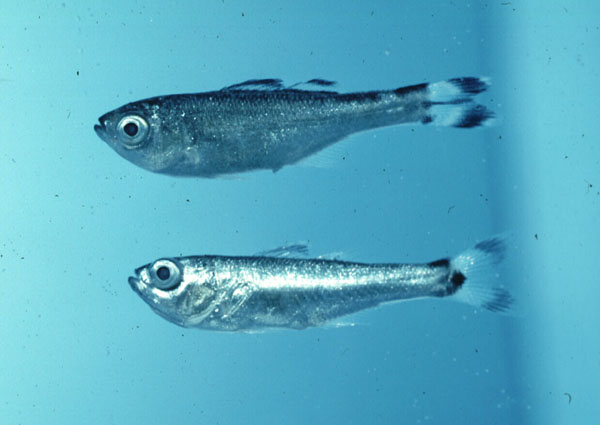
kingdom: Animalia
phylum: Chordata
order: Perciformes
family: Kuhliidae
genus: Kuhlia
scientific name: Kuhlia mugil
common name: Barred flagtail
